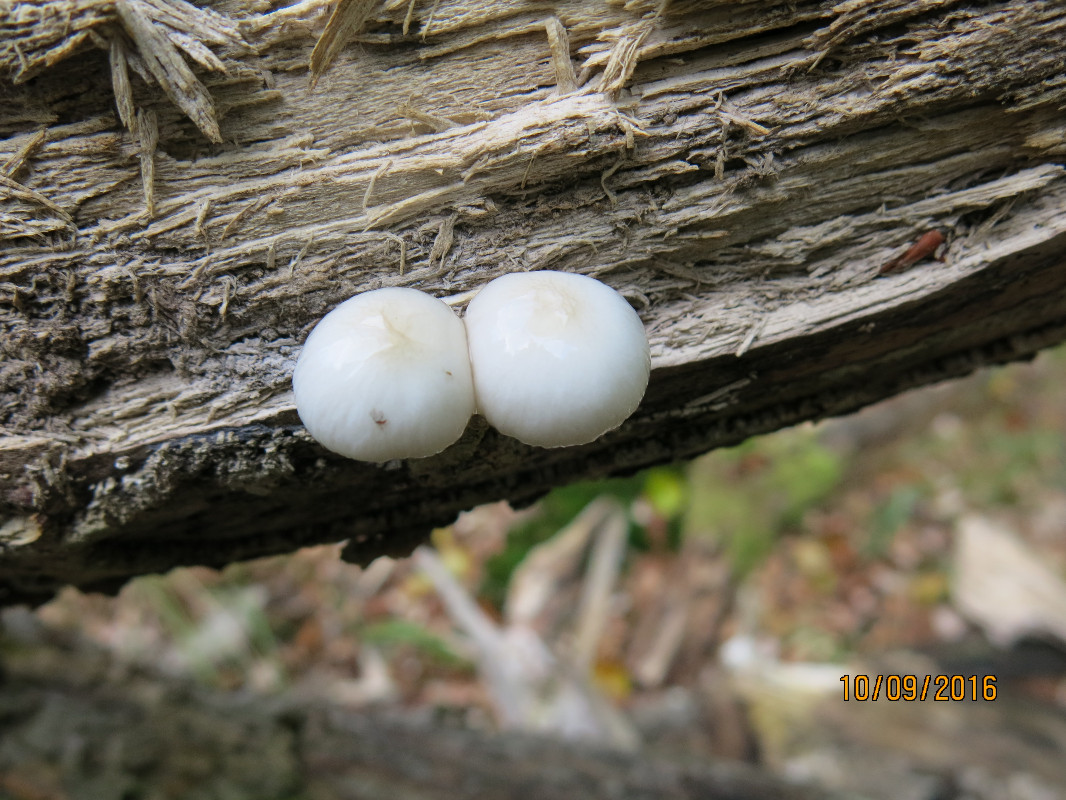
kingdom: Fungi
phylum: Basidiomycota
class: Agaricomycetes
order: Agaricales
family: Physalacriaceae
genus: Mucidula
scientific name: Mucidula mucida
